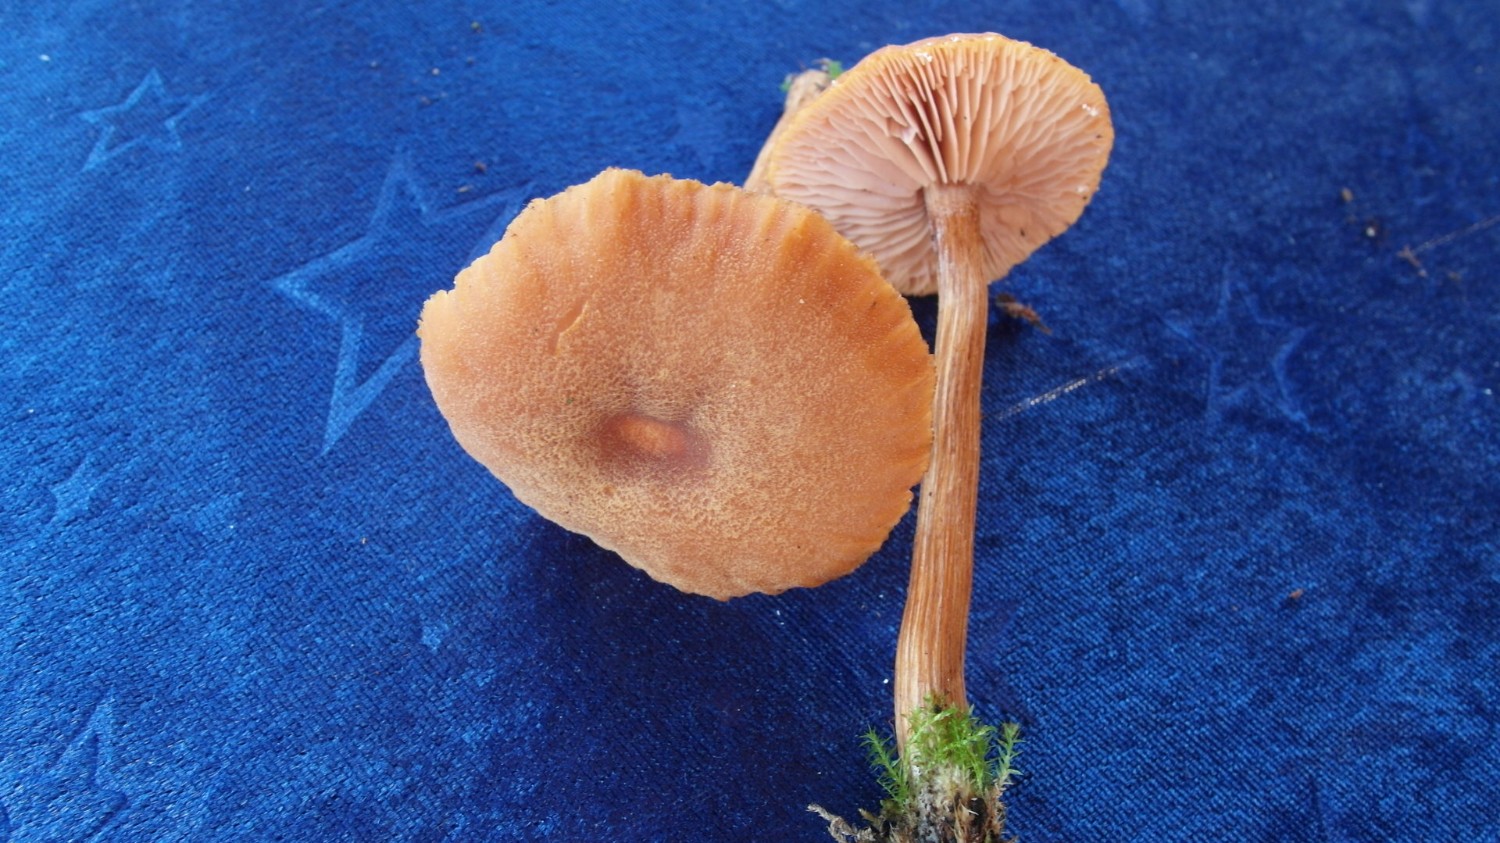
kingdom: Fungi
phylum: Basidiomycota
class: Agaricomycetes
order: Agaricales
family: Hydnangiaceae
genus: Laccaria
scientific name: Laccaria proxima
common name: stor ametysthat
